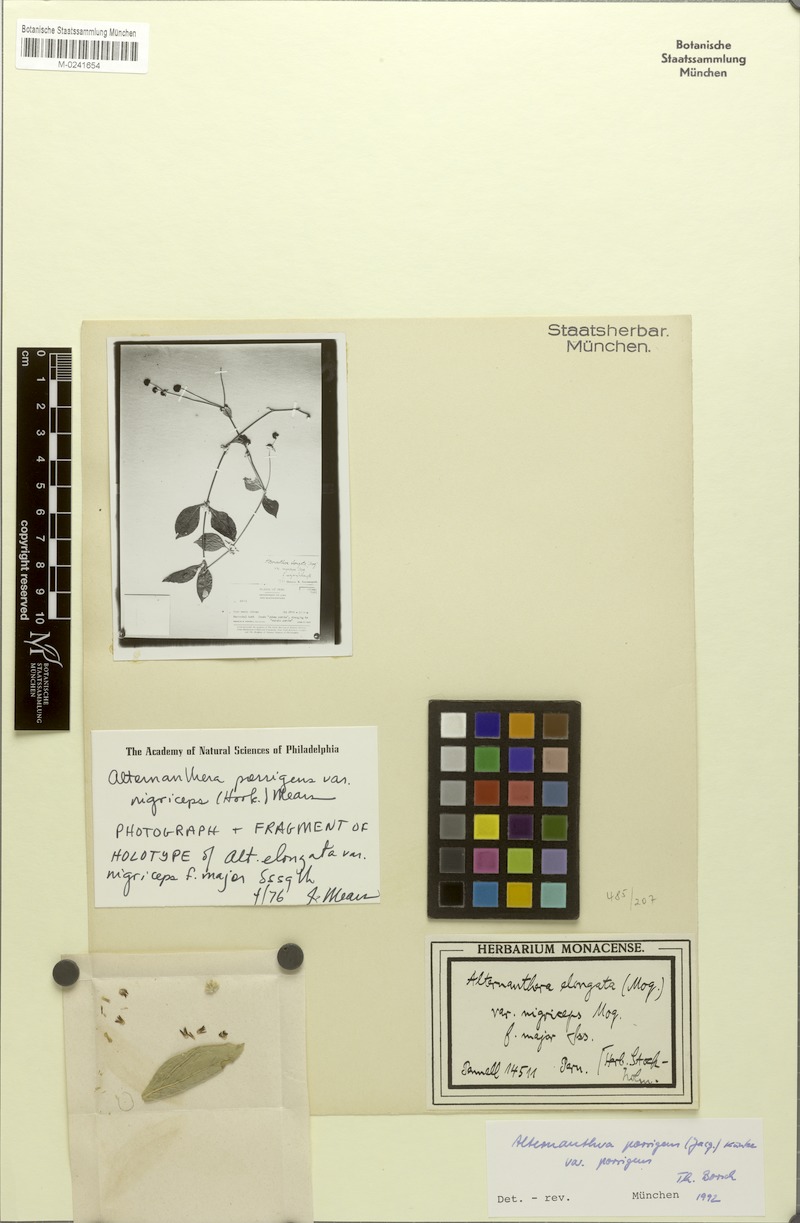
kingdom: Plantae
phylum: Tracheophyta
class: Magnoliopsida
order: Caryophyllales
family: Amaranthaceae
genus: Alternanthera
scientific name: Alternanthera elongata
